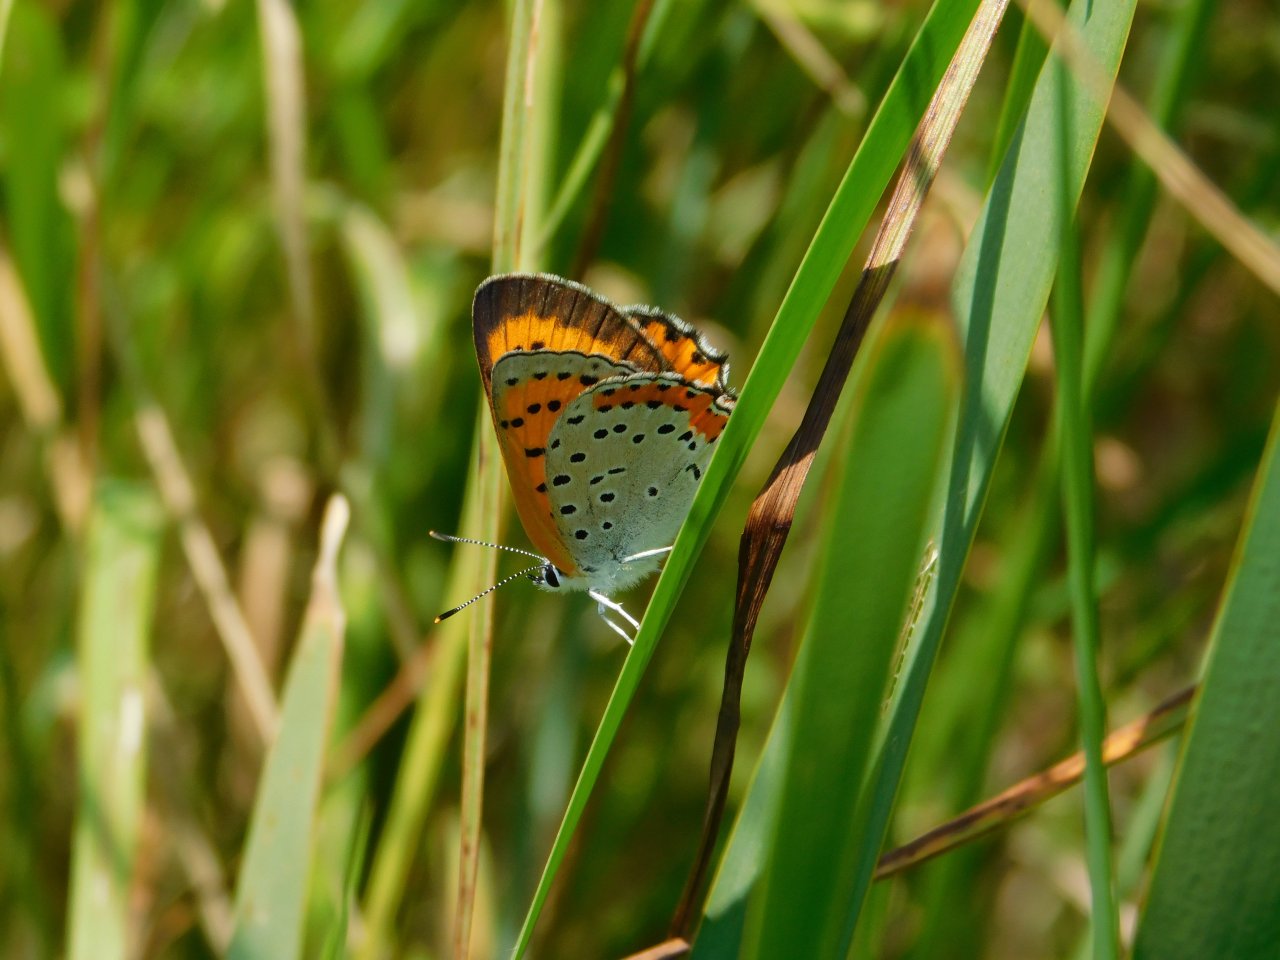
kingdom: Animalia
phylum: Arthropoda
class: Insecta
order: Lepidoptera
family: Sesiidae
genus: Sesia
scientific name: Sesia Lycaena hyllus
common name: Bronze Copper
